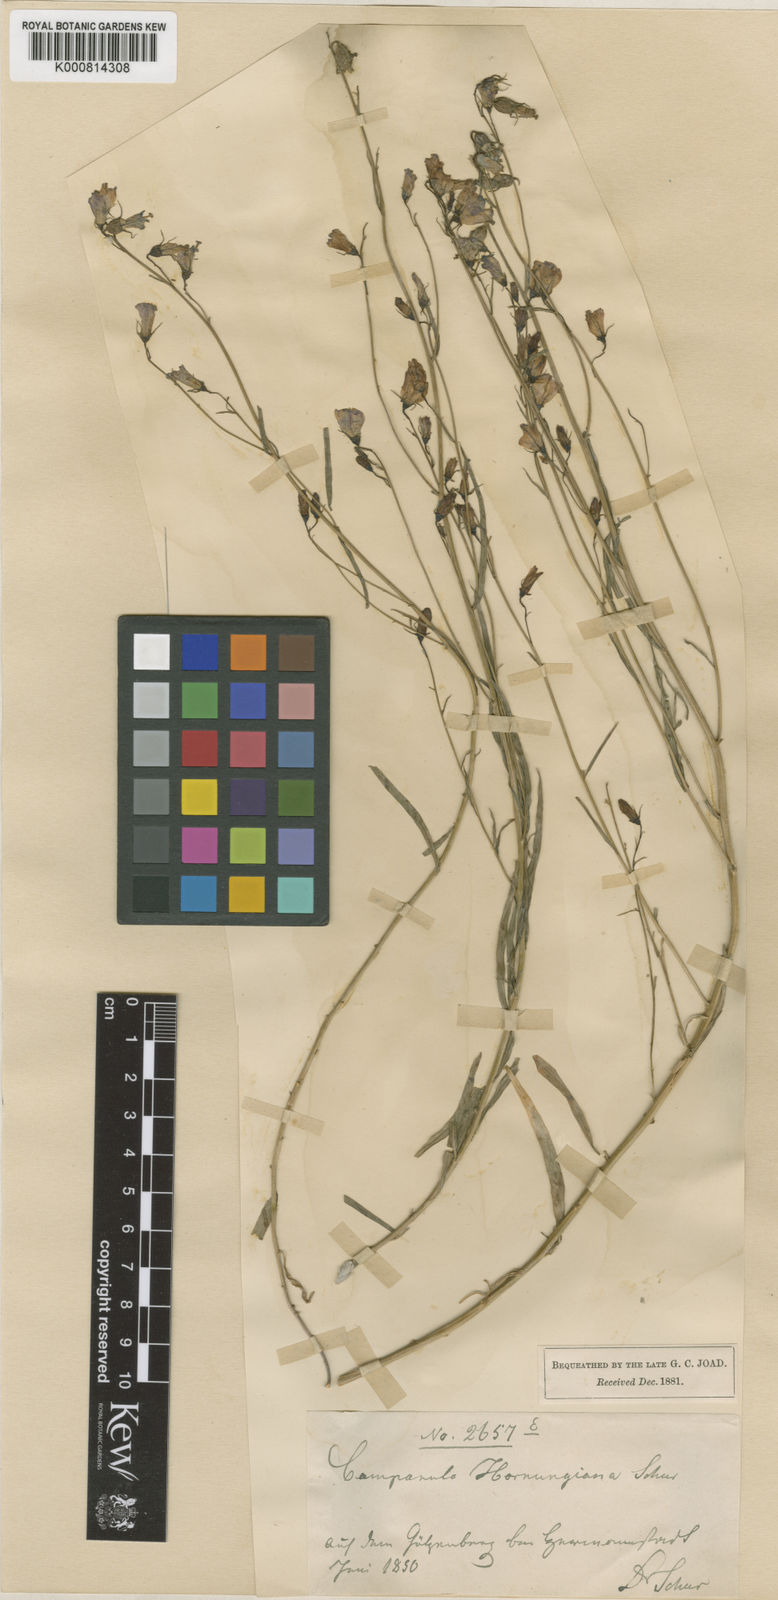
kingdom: Plantae
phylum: Tracheophyta
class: Magnoliopsida
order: Asterales
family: Campanulaceae
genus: Campanula
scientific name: Campanula serrata
